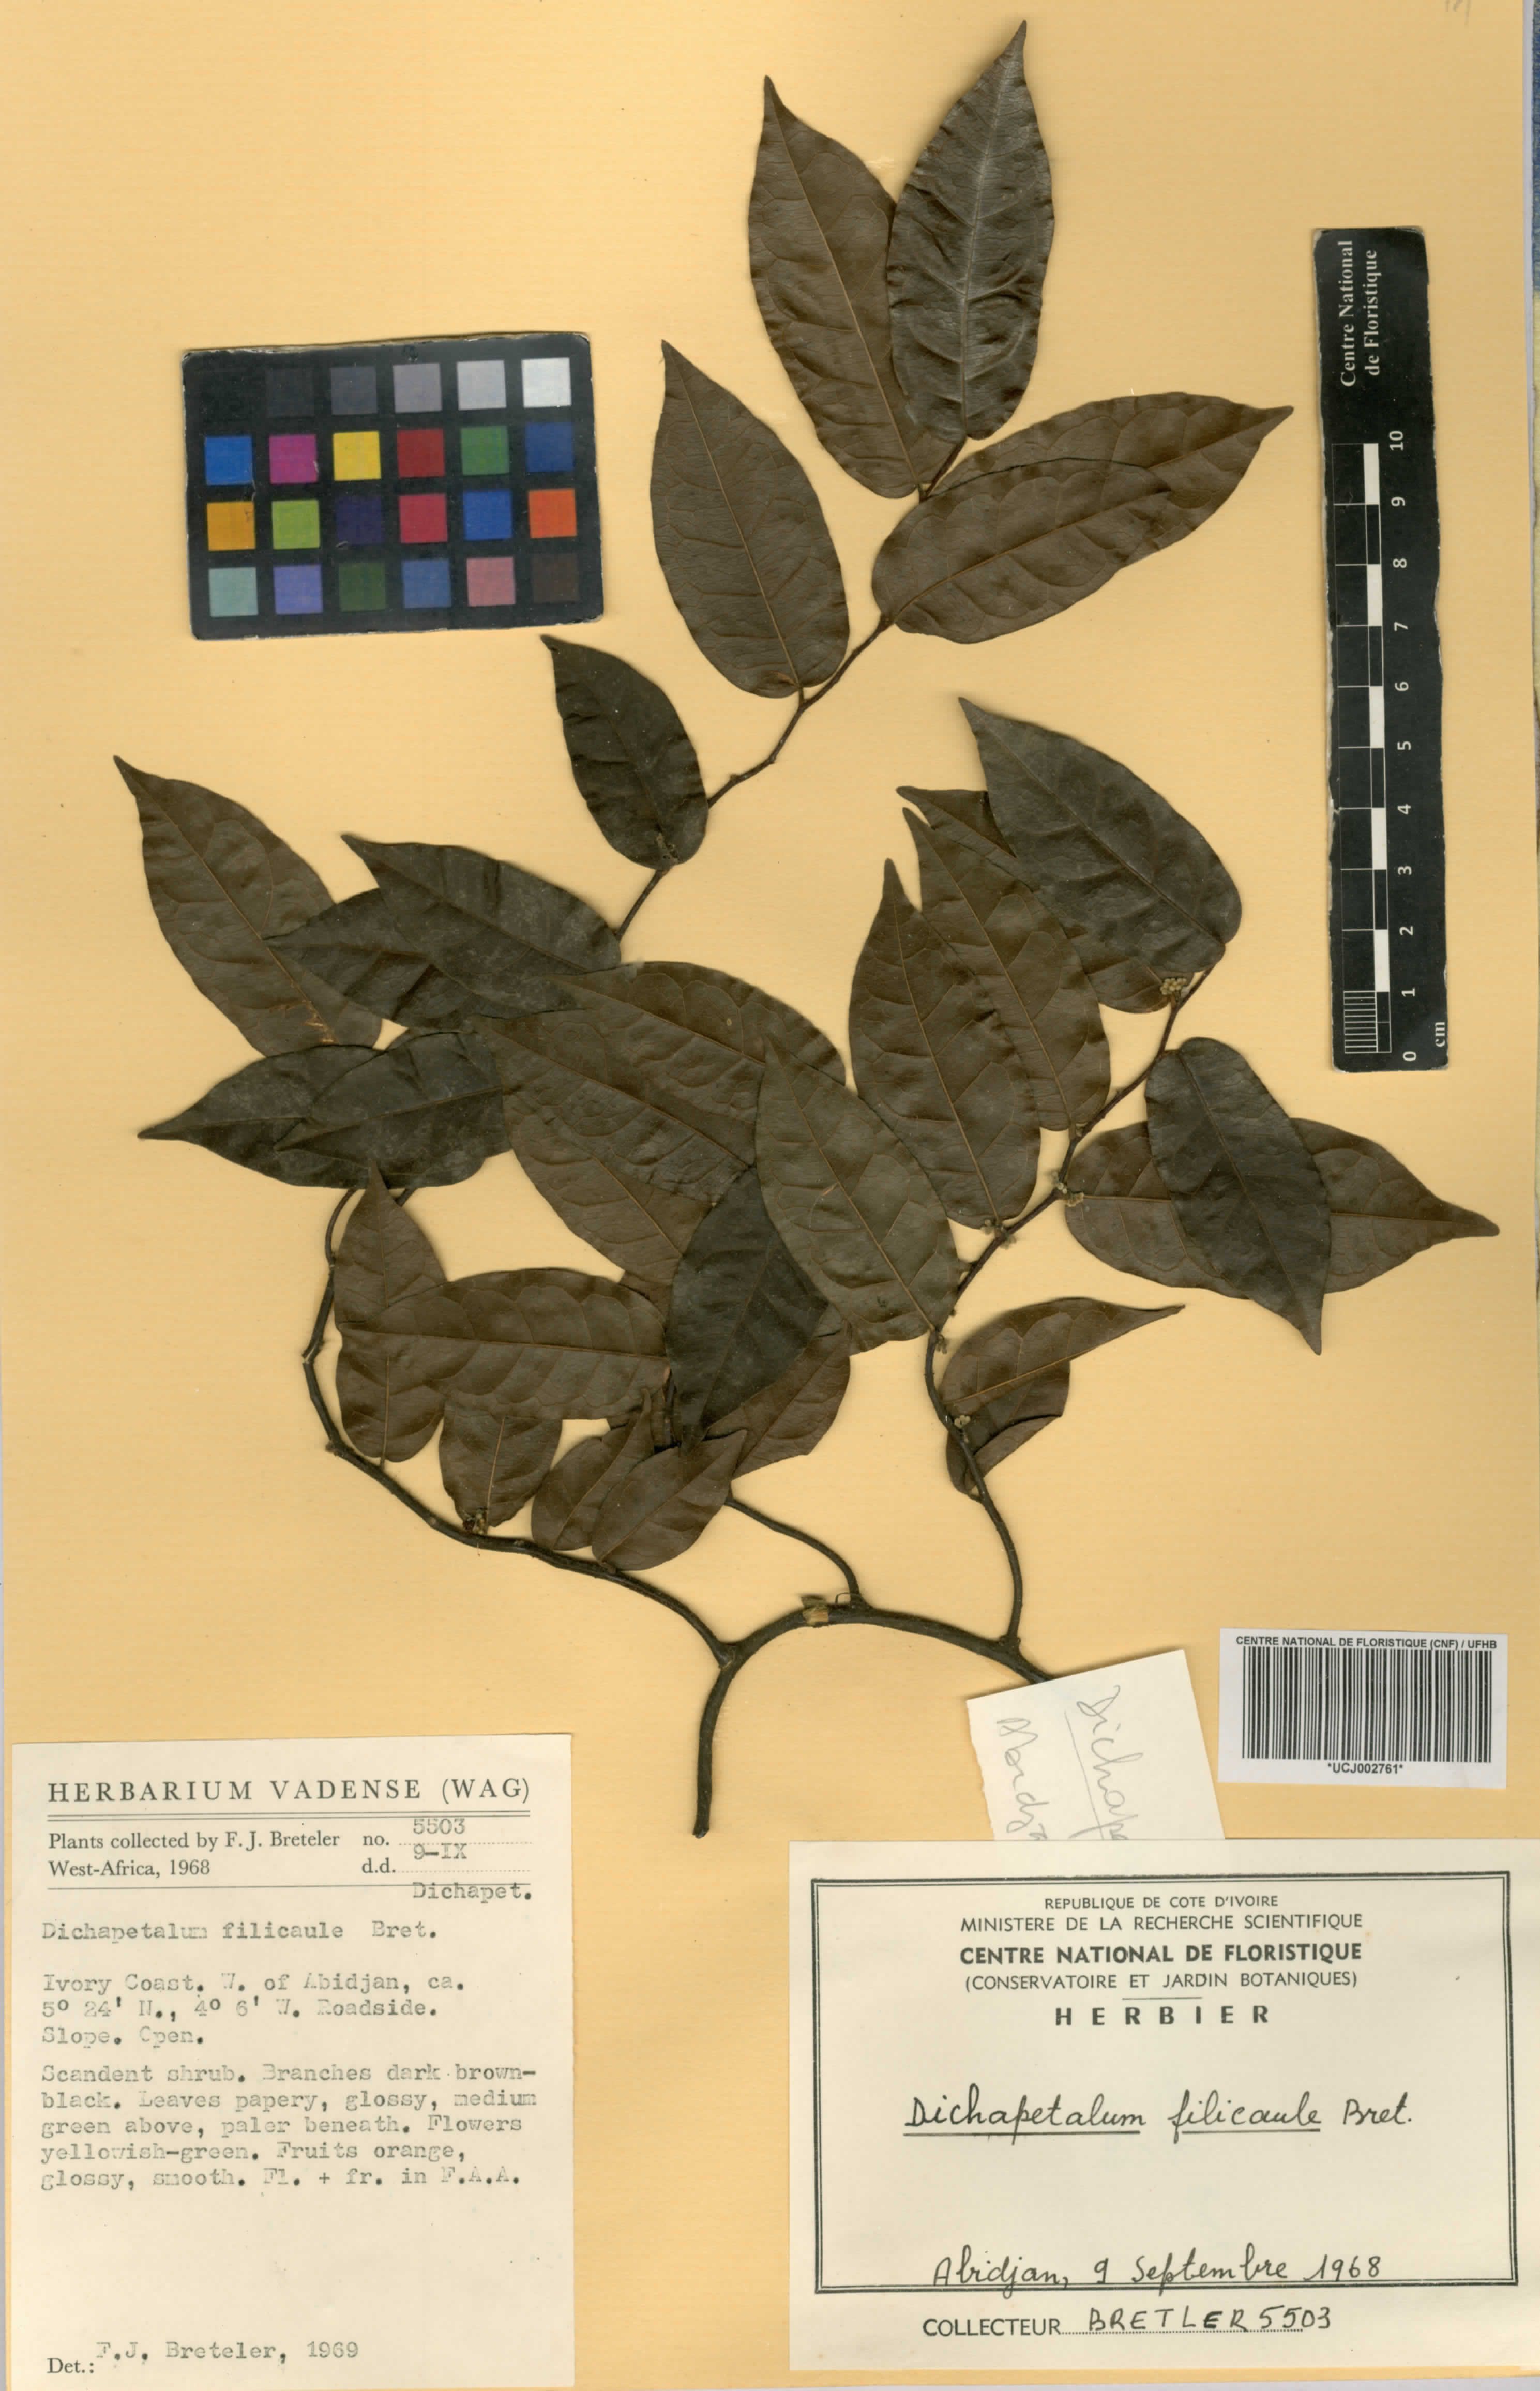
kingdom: Plantae
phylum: Tracheophyta
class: Magnoliopsida
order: Malpighiales
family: Dichapetalaceae
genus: Dichapetalum
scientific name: Dichapetalum filicaule
